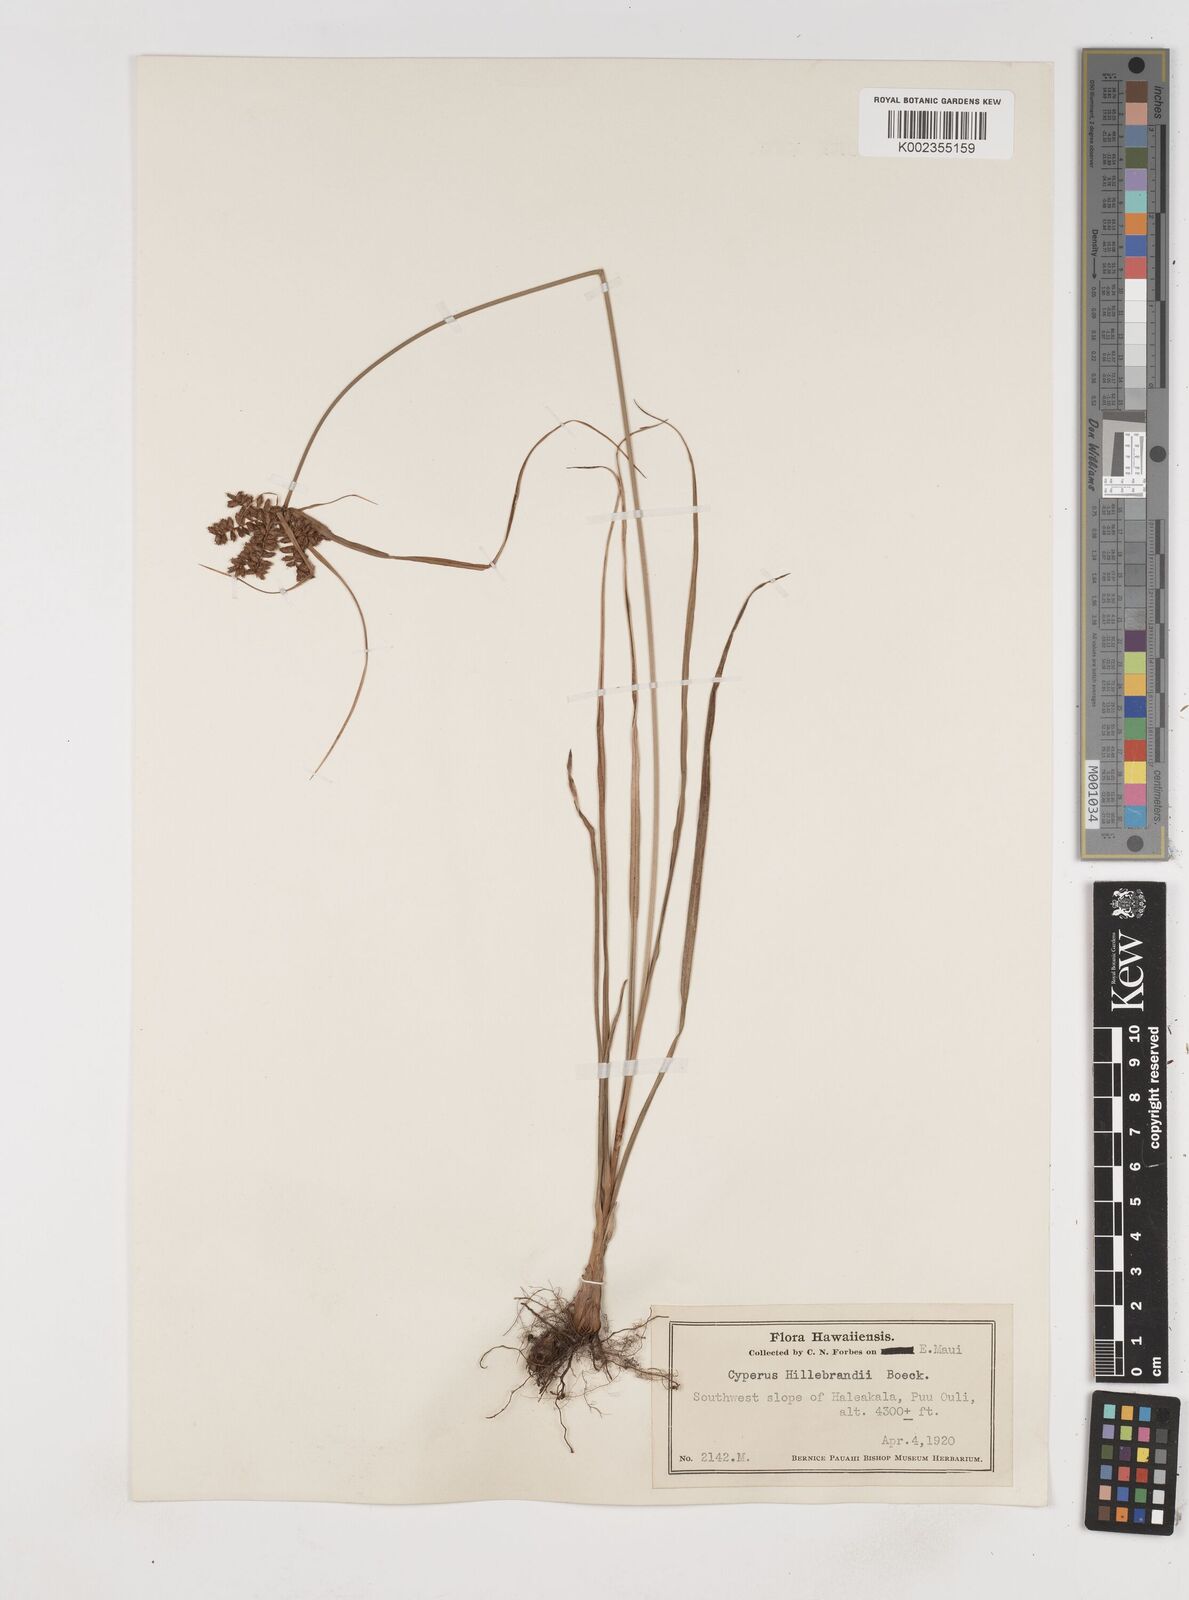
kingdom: Plantae
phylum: Tracheophyta
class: Liliopsida
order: Poales
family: Cyperaceae
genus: Cyperus
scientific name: Cyperus hillebrandii
